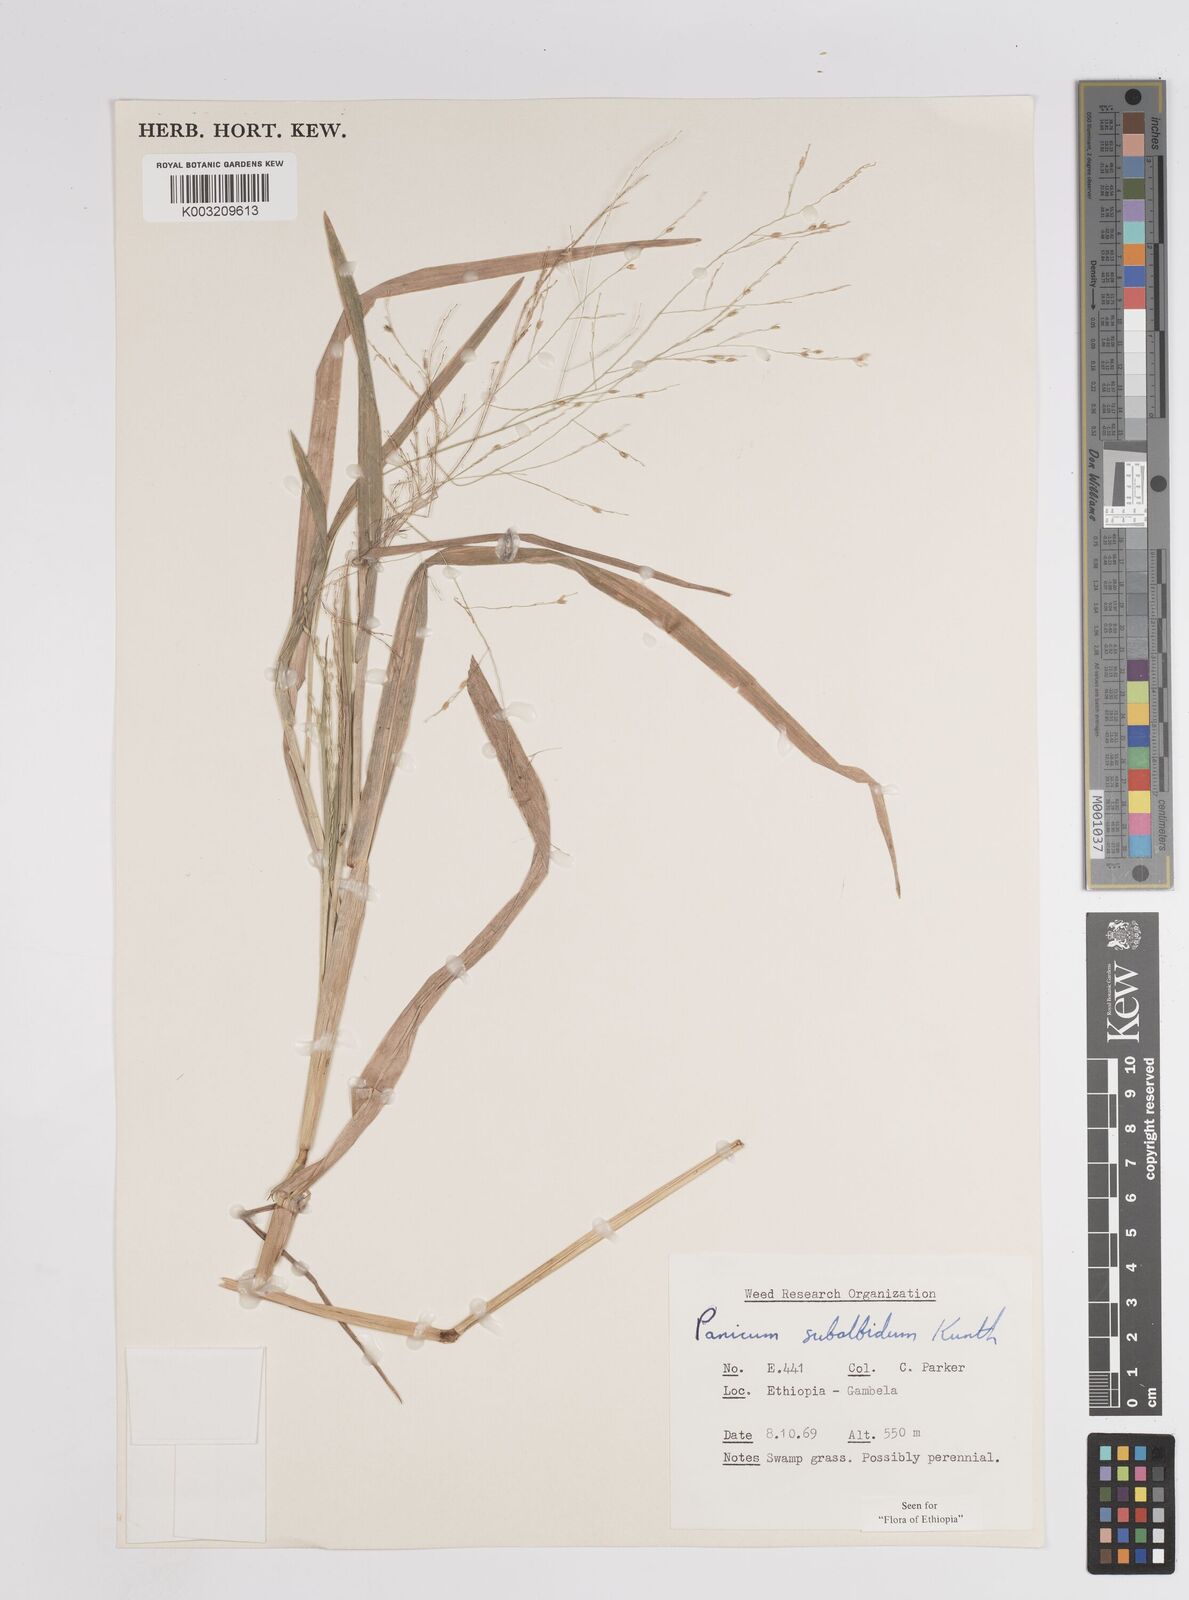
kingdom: Plantae
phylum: Tracheophyta
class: Liliopsida
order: Poales
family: Poaceae
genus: Panicum
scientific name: Panicum subalbidum
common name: Elbow buffalo grass
